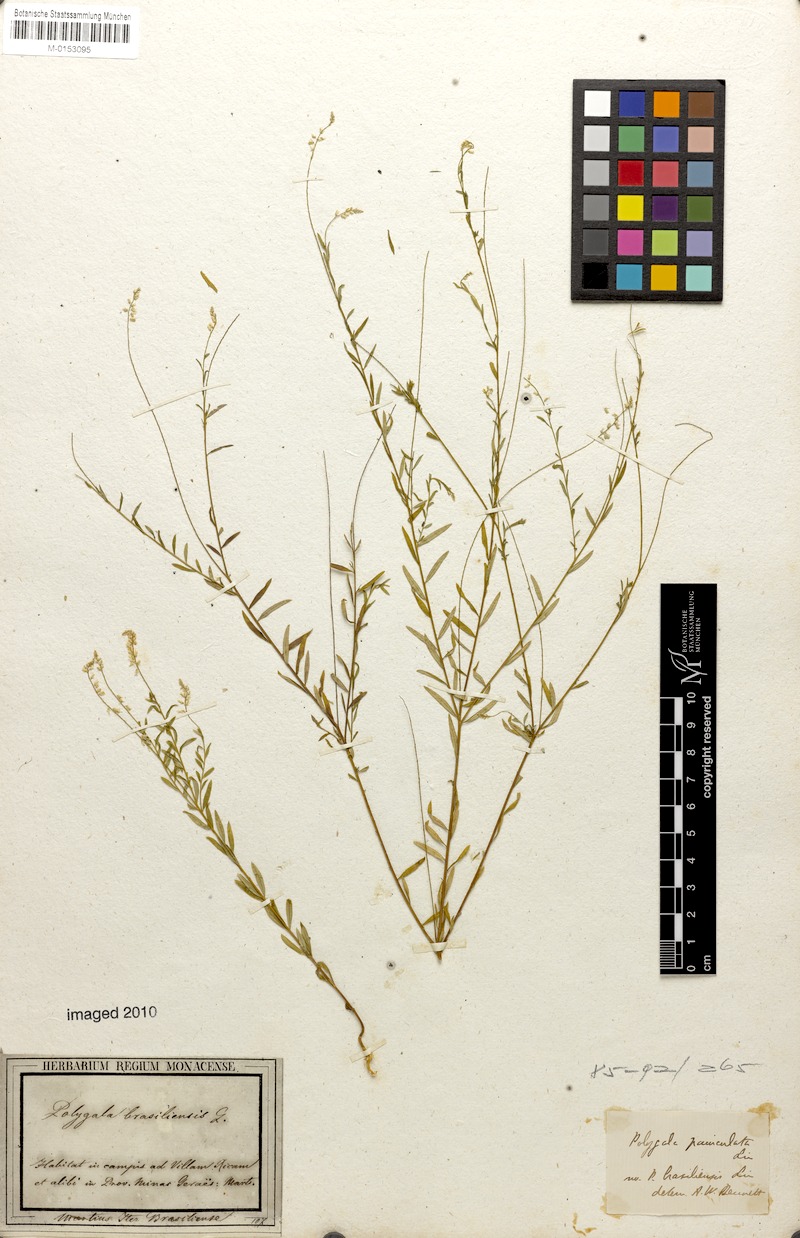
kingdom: Plantae
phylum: Tracheophyta
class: Magnoliopsida
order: Fabales
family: Polygalaceae
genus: Polygala
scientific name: Polygala brasiliensis
